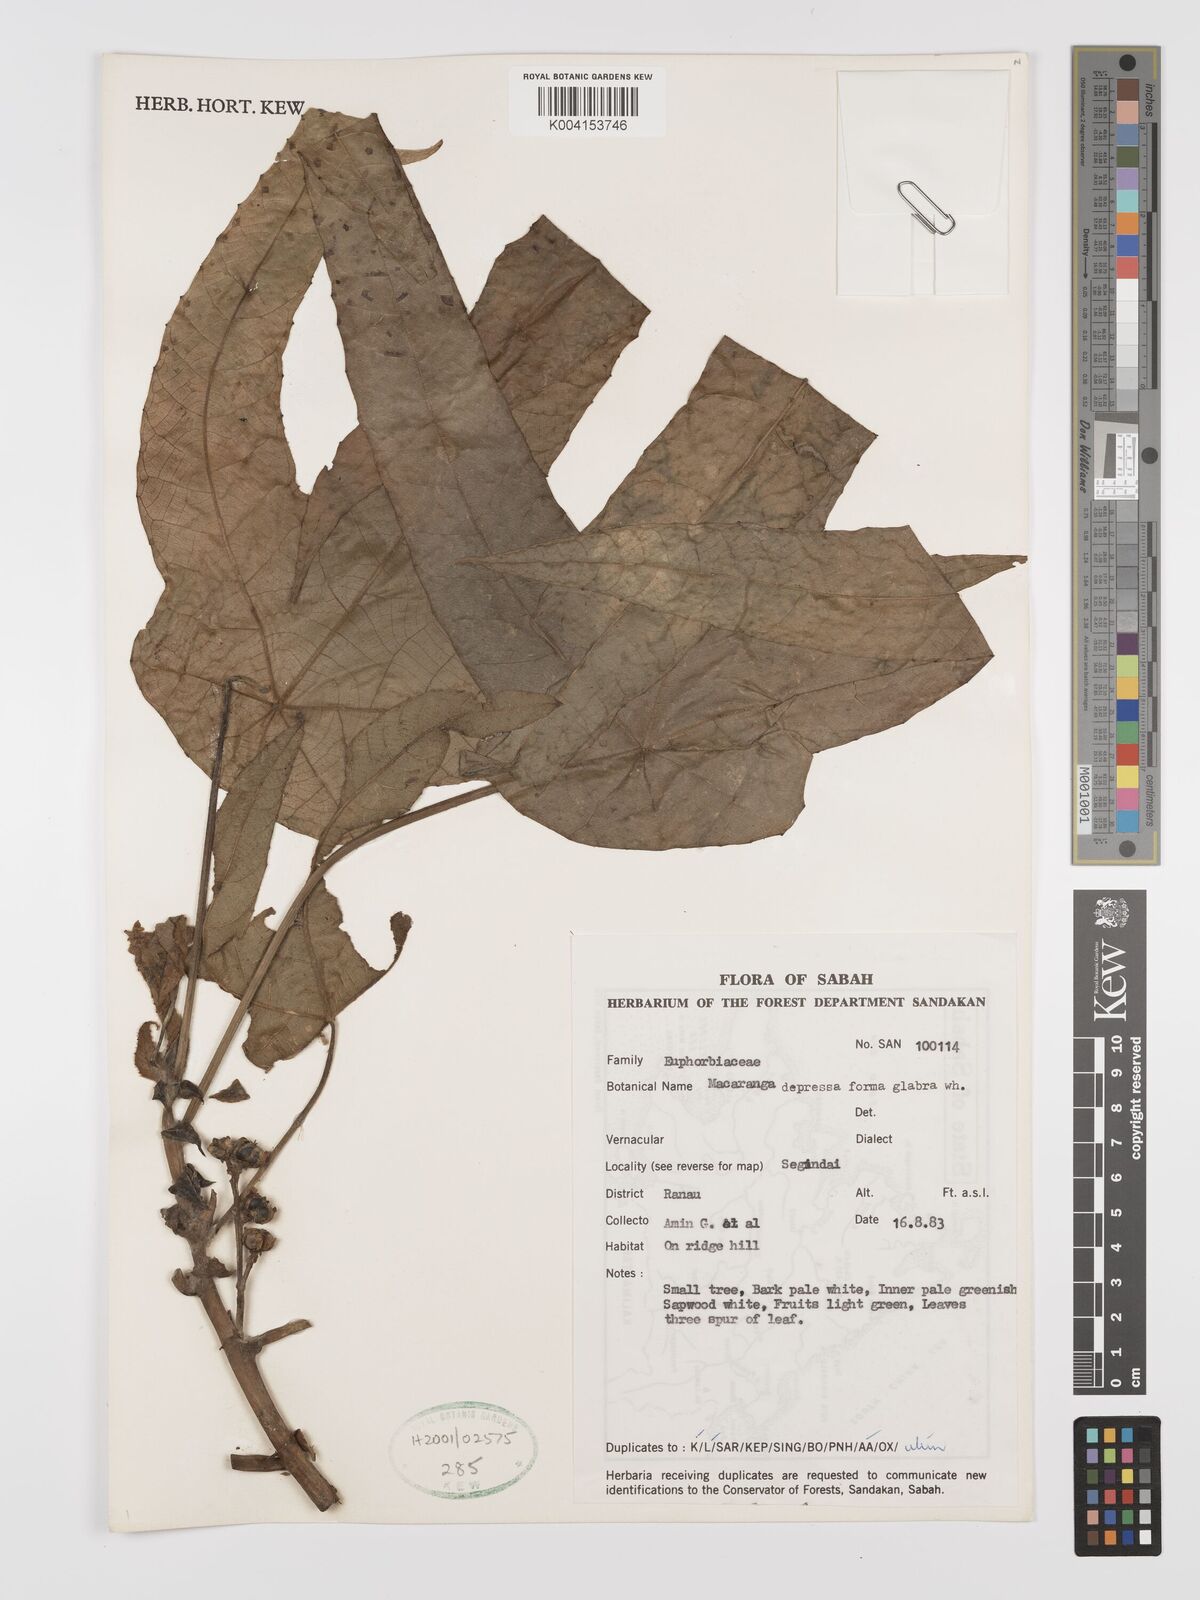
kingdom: Plantae
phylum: Tracheophyta
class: Magnoliopsida
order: Malpighiales
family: Euphorbiaceae
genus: Macaranga
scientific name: Macaranga depressa
